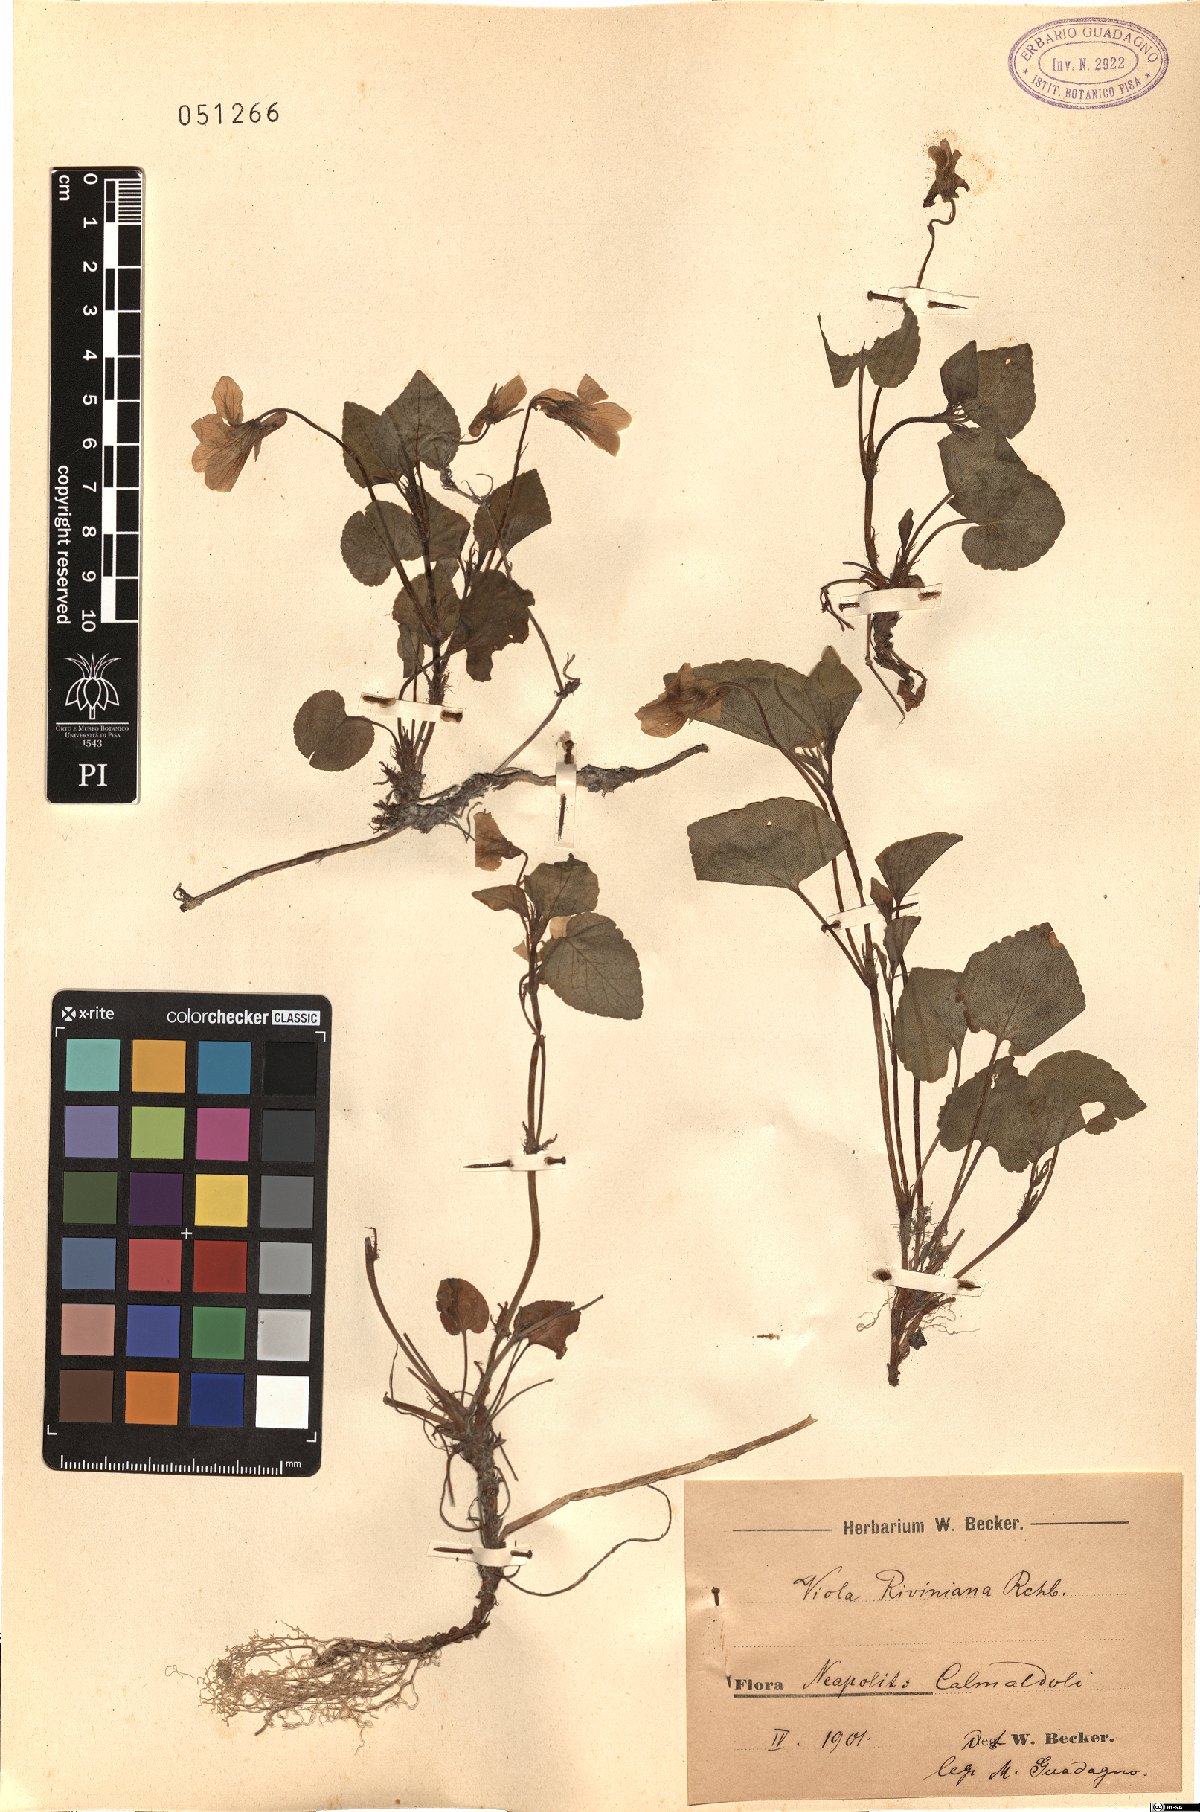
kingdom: Plantae
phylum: Tracheophyta
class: Magnoliopsida
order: Malpighiales
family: Violaceae
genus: Viola
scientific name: Viola mirabilis
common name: Wonder violet
